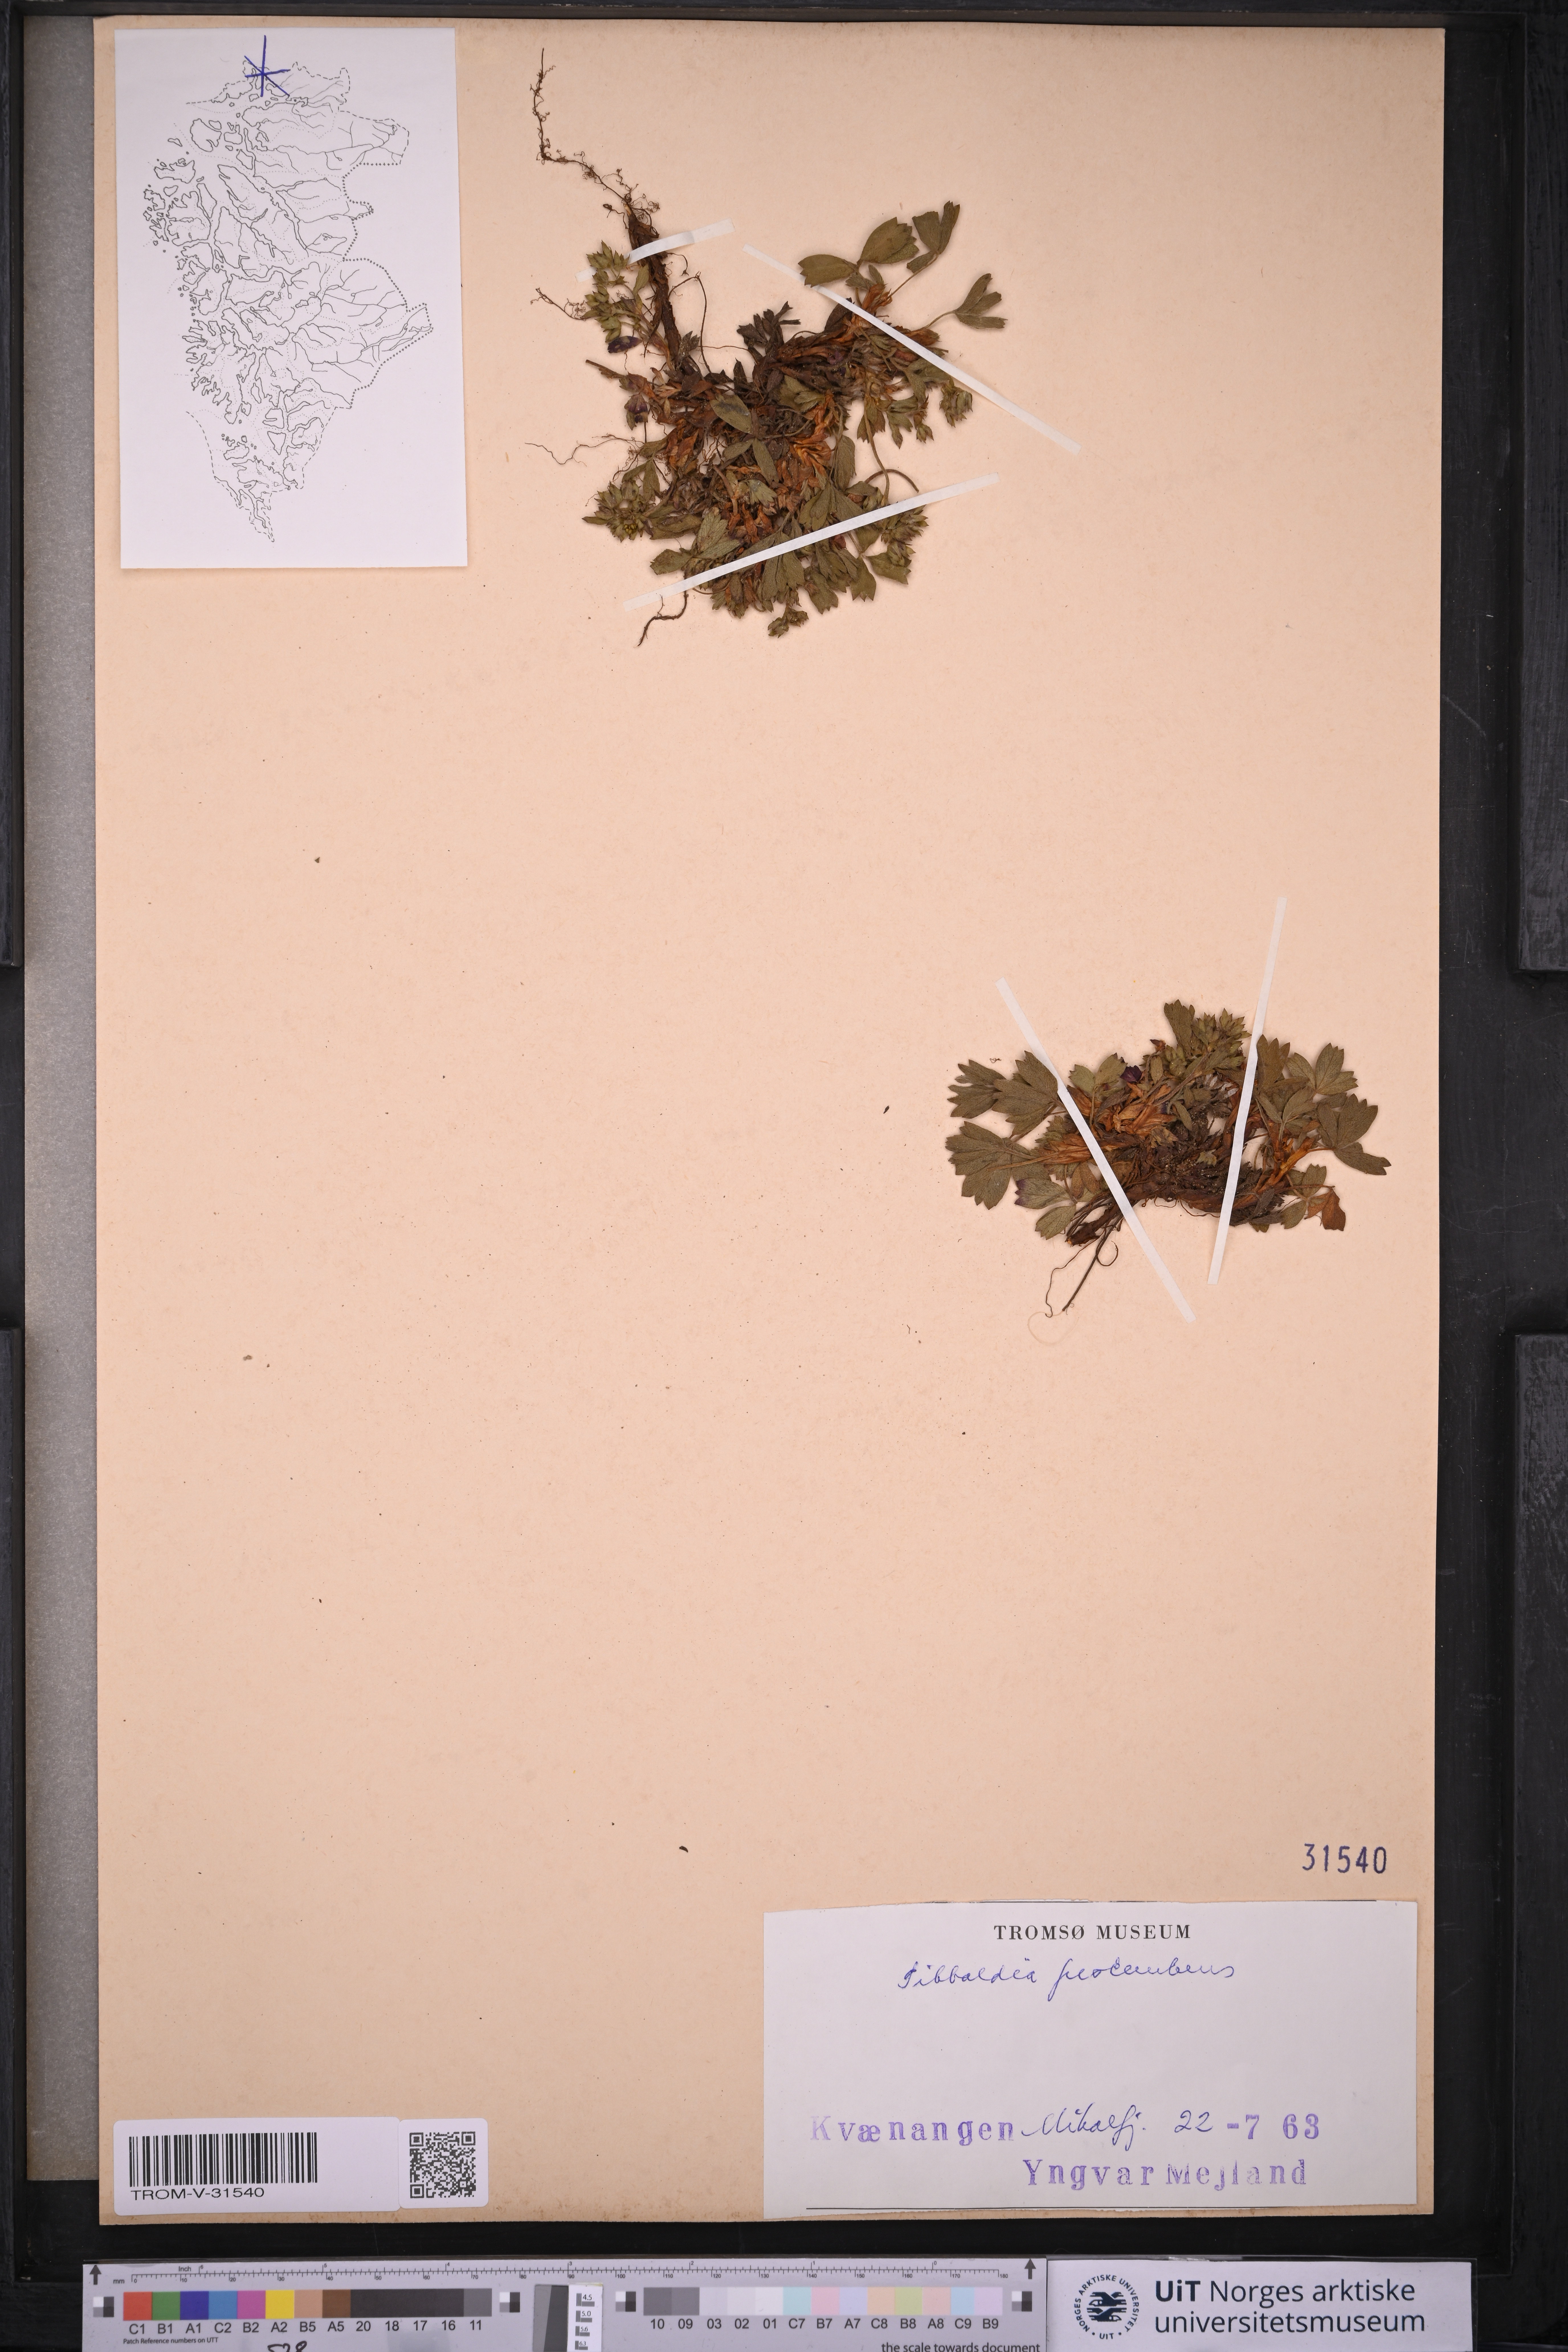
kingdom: Plantae
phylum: Tracheophyta
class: Magnoliopsida
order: Rosales
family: Rosaceae
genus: Sibbaldia
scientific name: Sibbaldia procumbens
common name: Creeping sibbaldia
